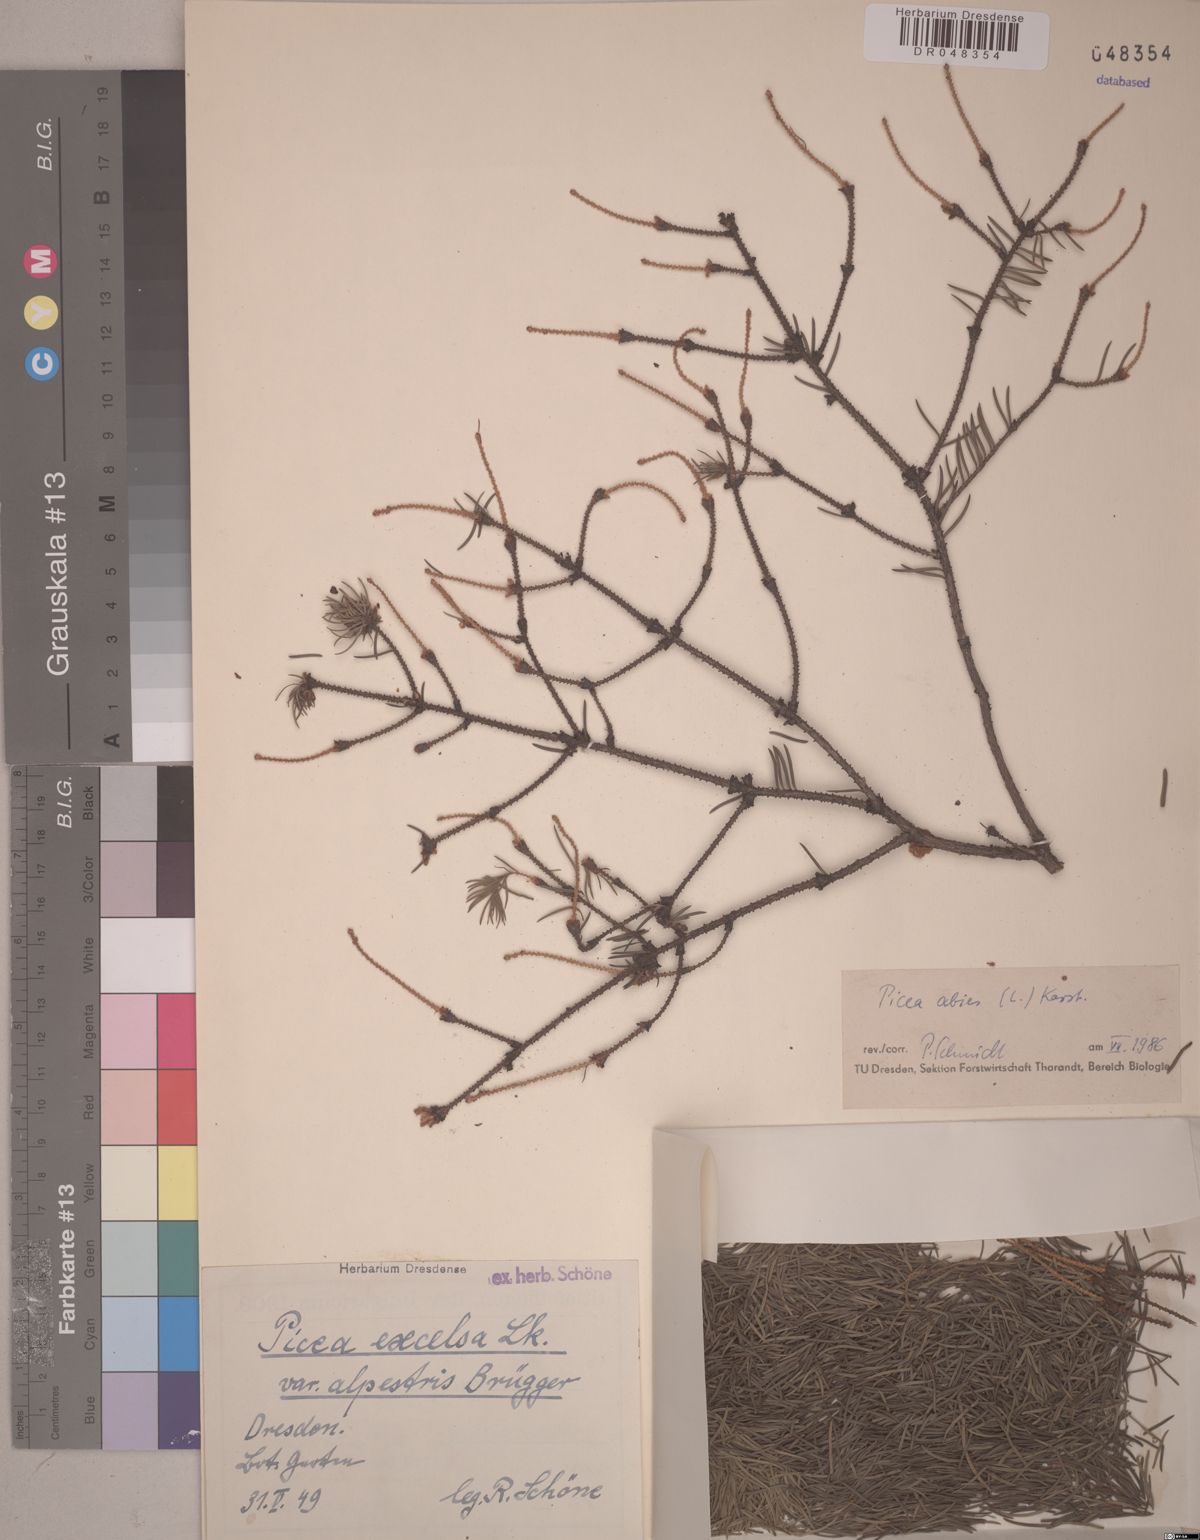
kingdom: Plantae
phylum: Tracheophyta
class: Pinopsida
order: Pinales
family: Pinaceae
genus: Picea
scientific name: Picea abies
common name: Norway spruce
